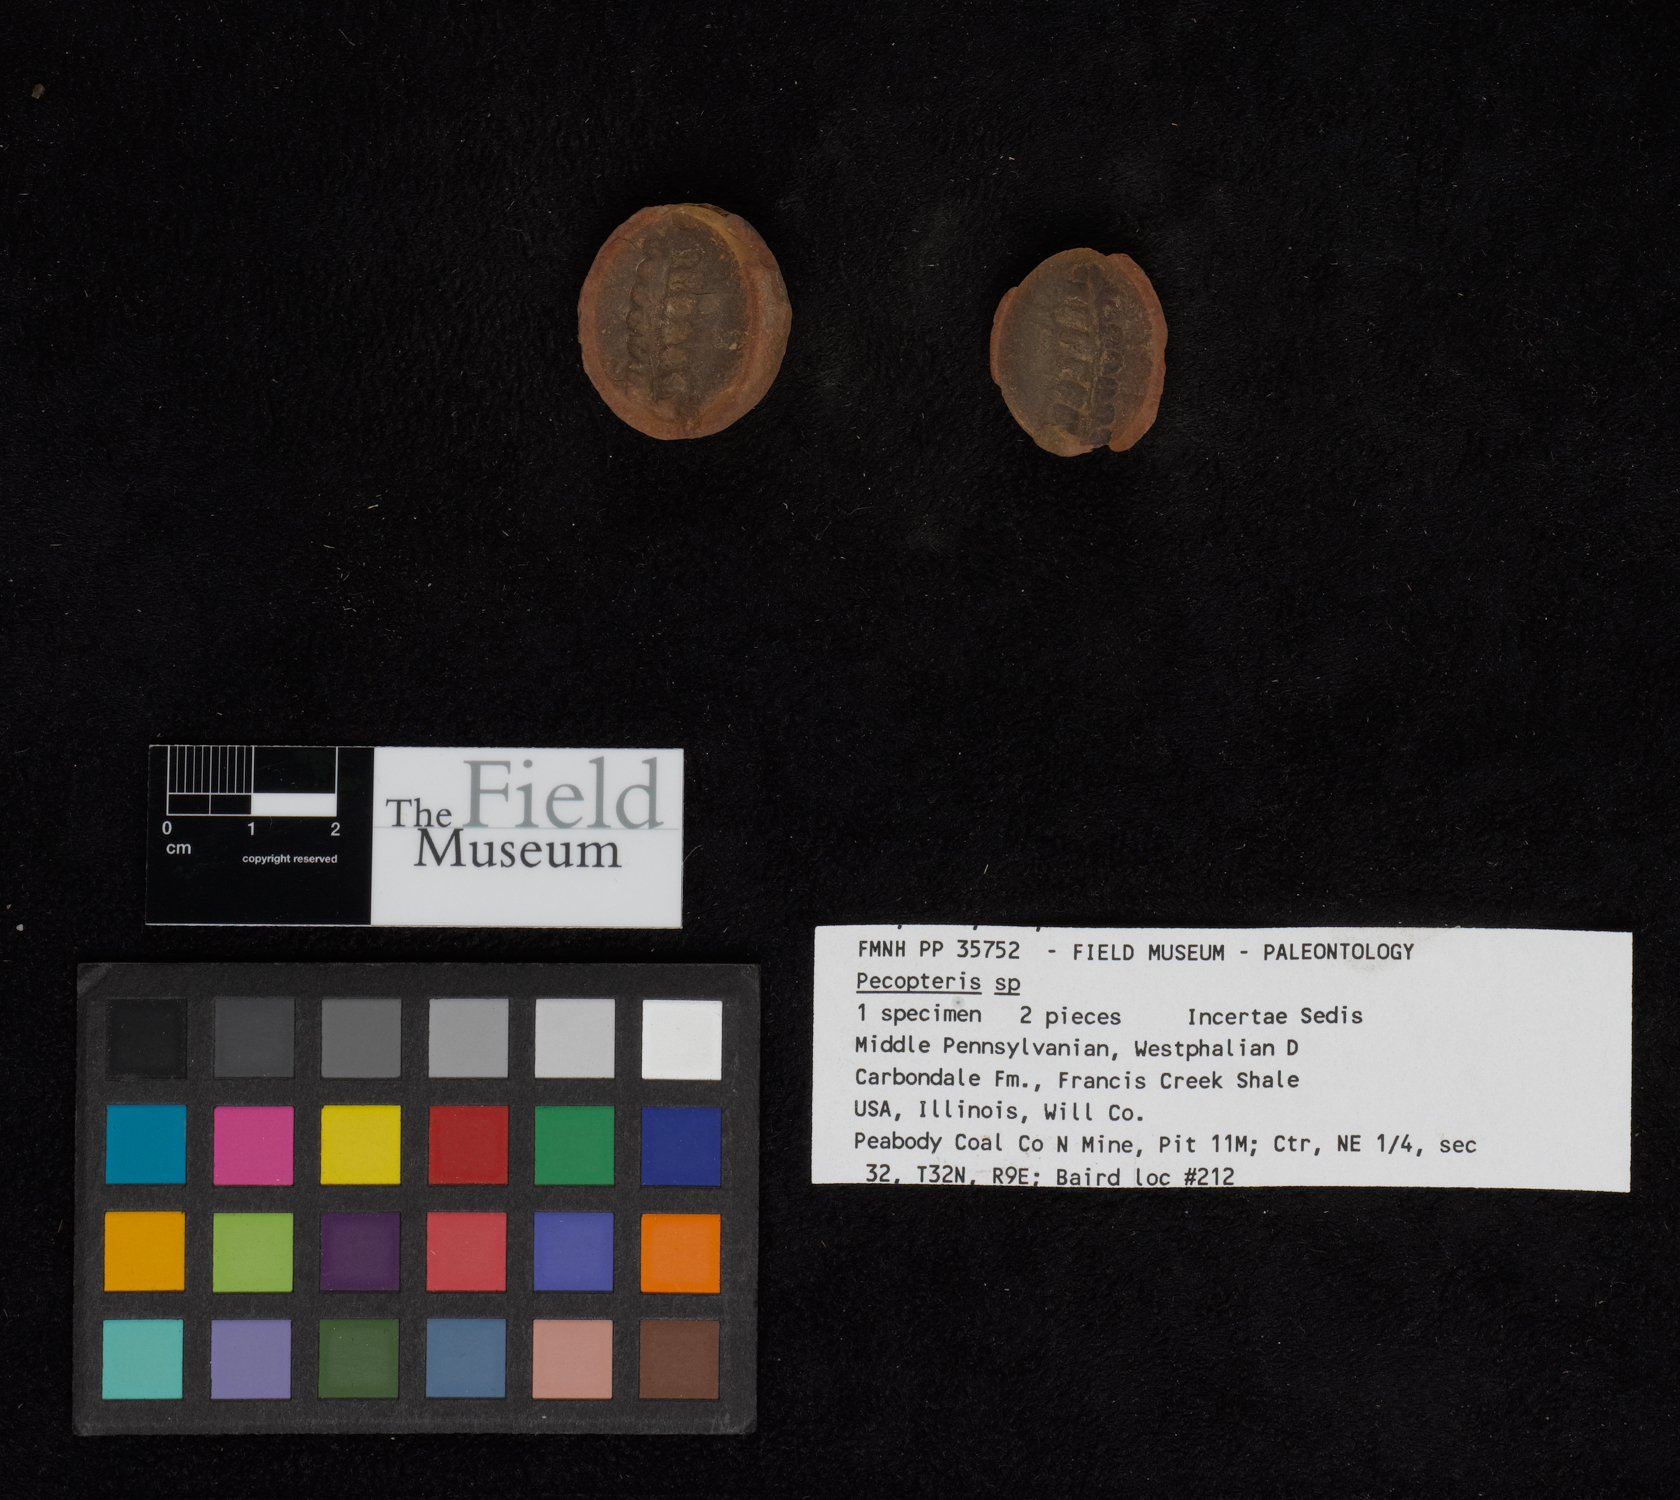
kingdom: Plantae
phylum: Tracheophyta
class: Polypodiopsida
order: Marattiales
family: Asterothecaceae
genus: Pecopteris
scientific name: Pecopteris
